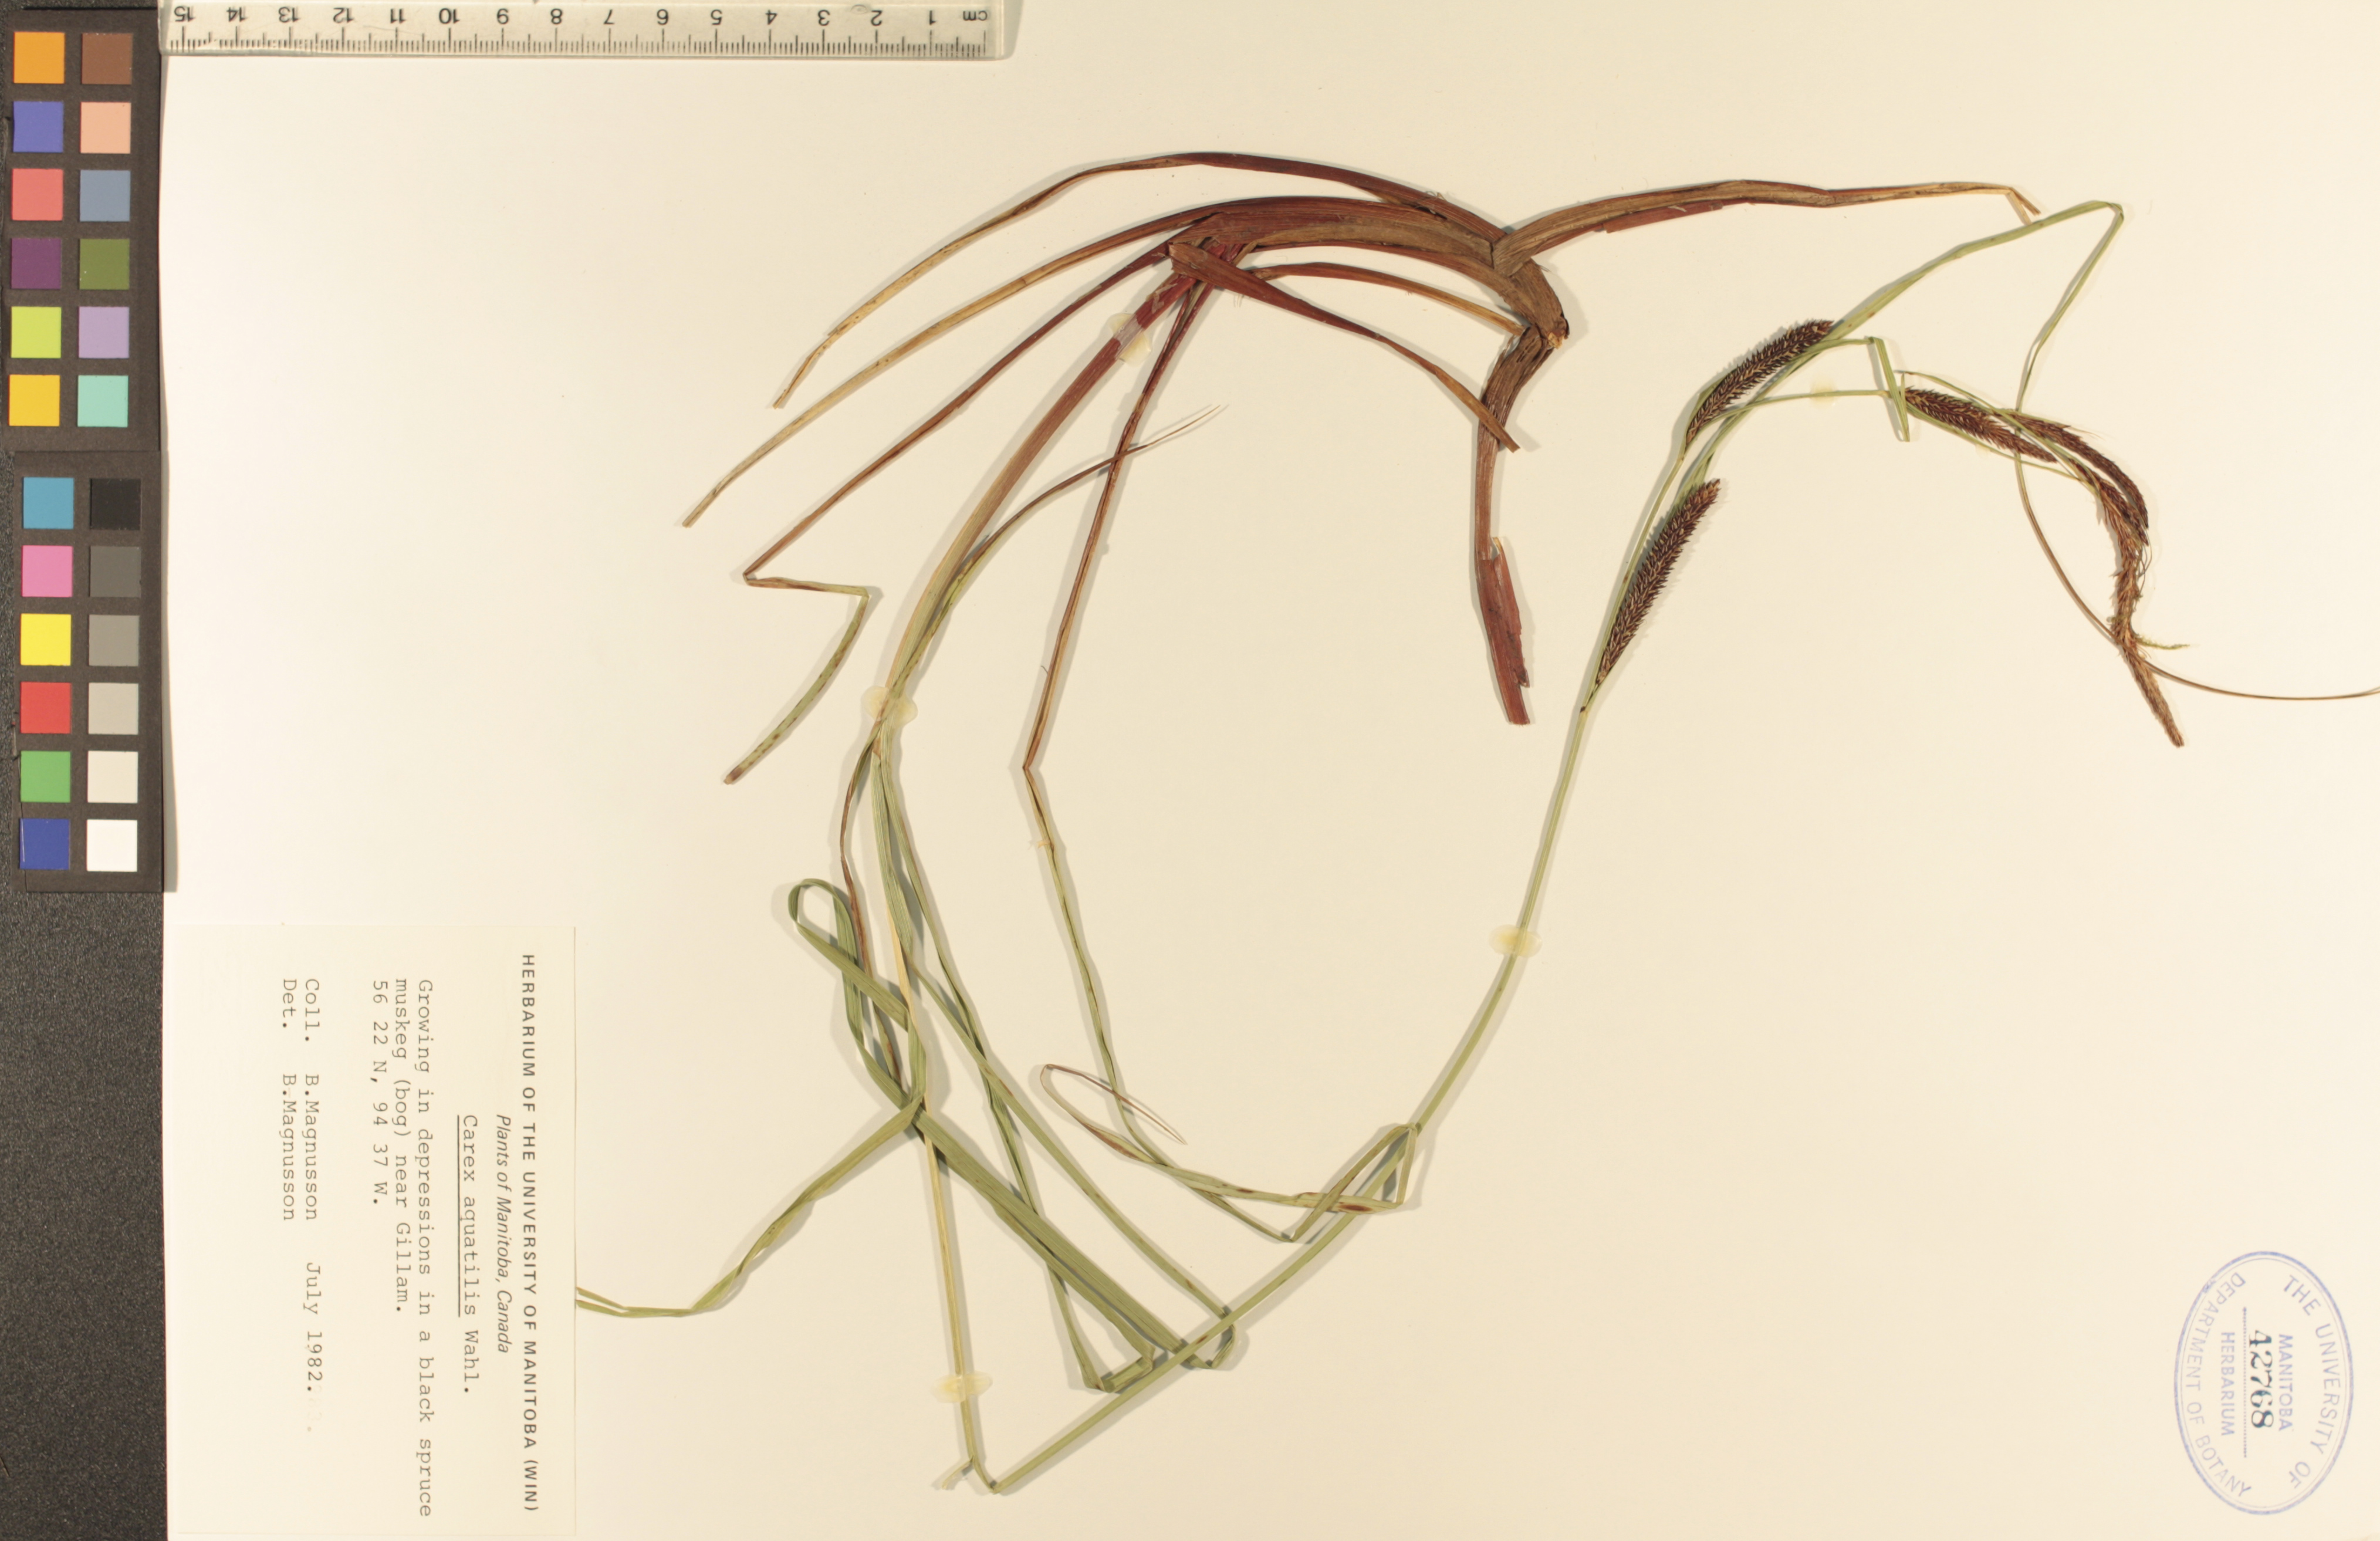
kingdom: Plantae
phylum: Tracheophyta
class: Liliopsida
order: Poales
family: Cyperaceae
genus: Carex
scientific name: Carex aquatilis
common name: Water sedge
